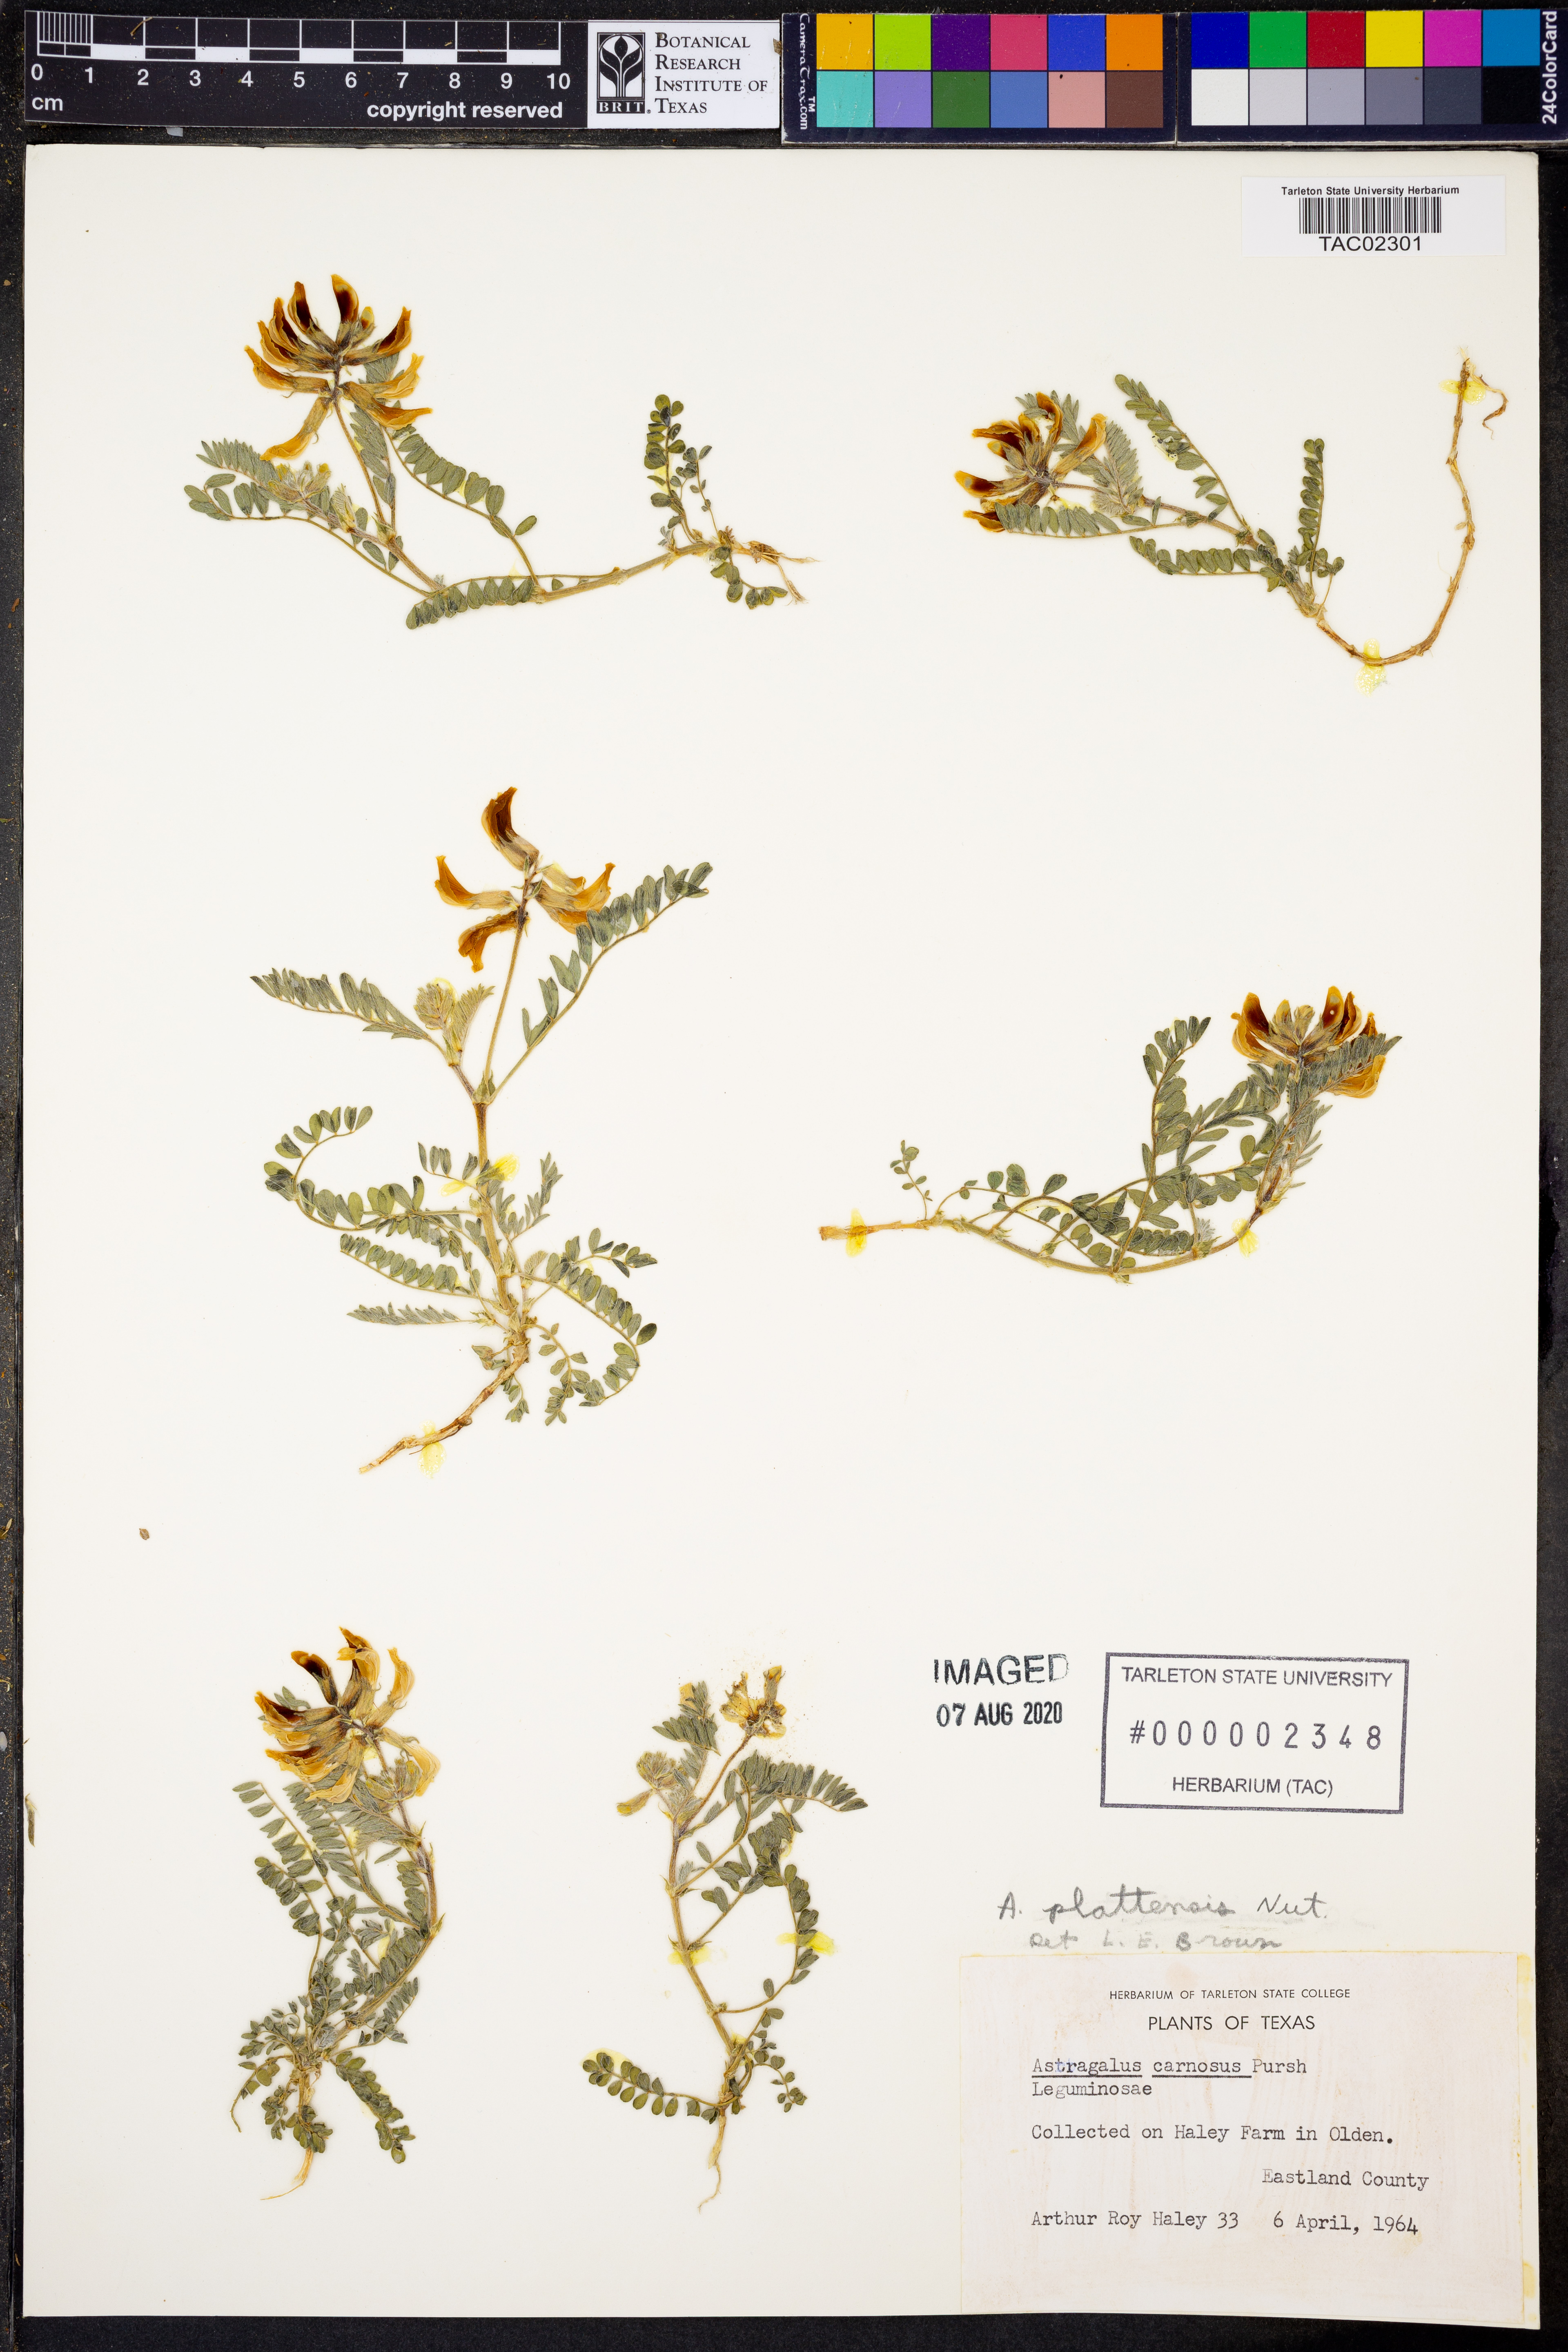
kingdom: Plantae
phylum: Tracheophyta
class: Magnoliopsida
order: Fabales
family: Fabaceae
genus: Astragalus
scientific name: Astragalus plattensis
